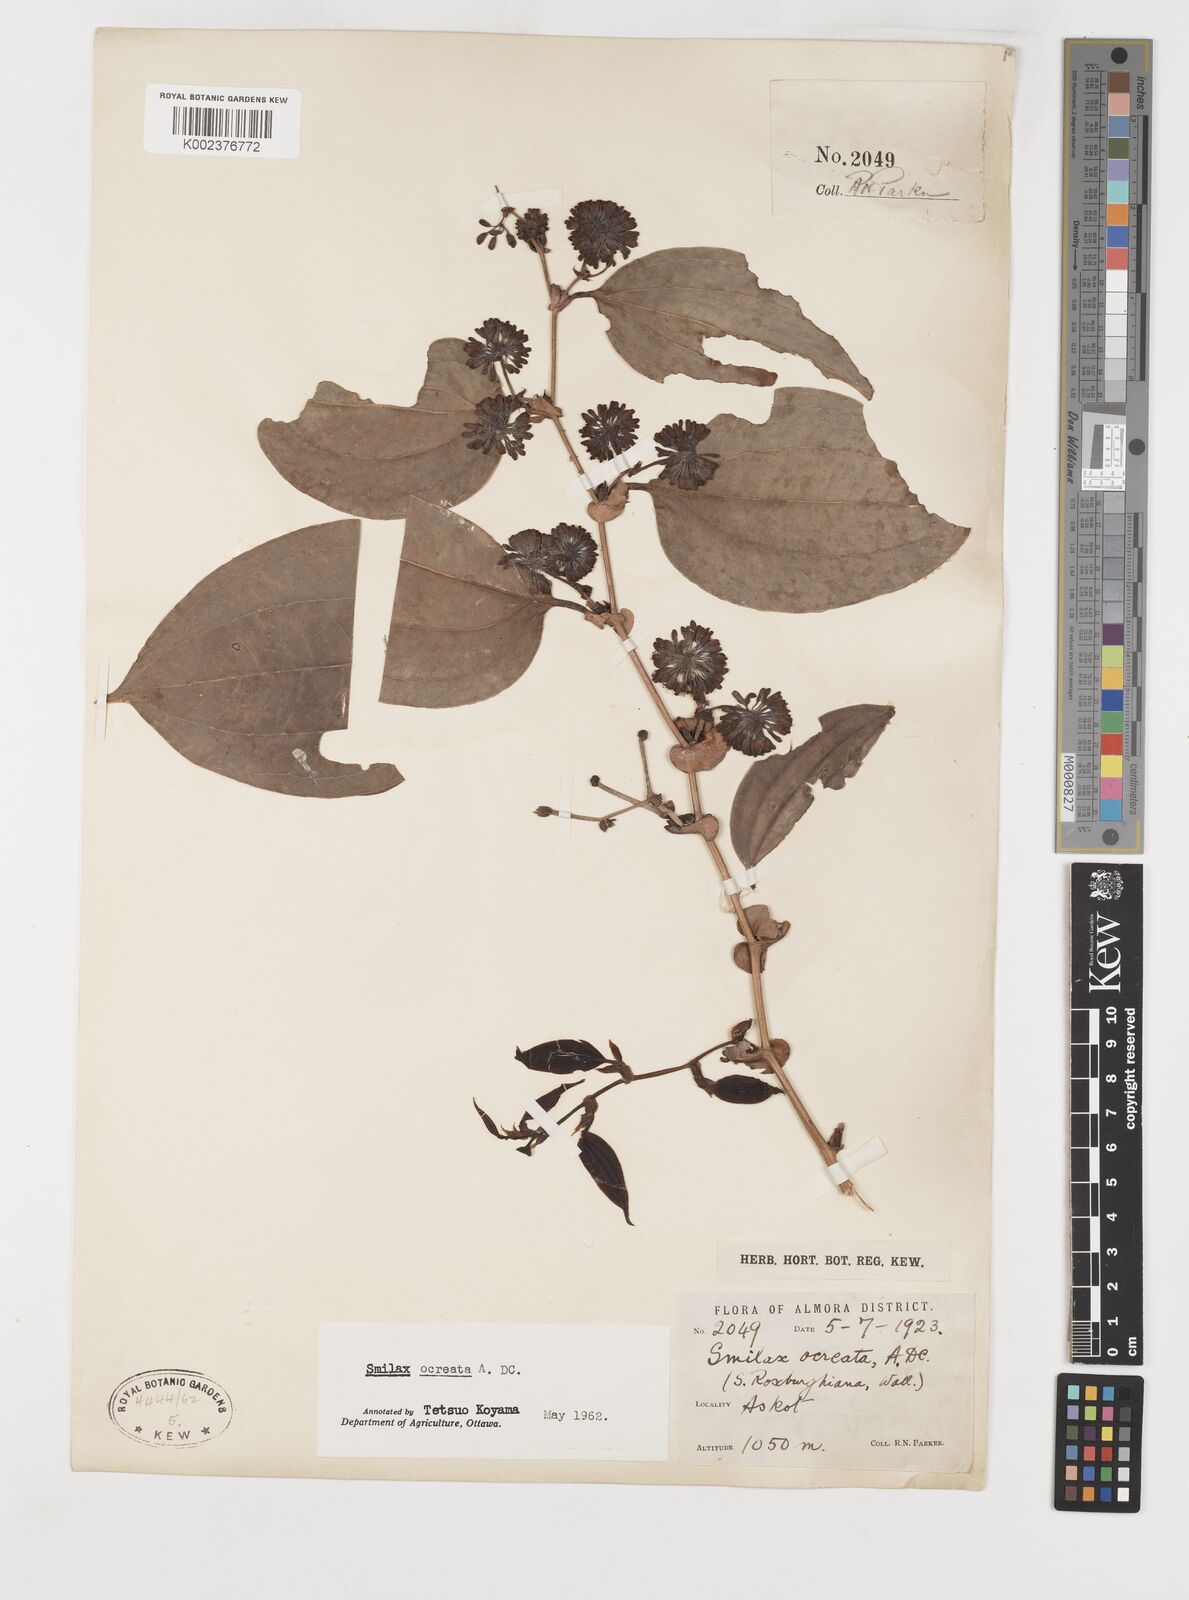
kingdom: Plantae
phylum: Tracheophyta
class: Liliopsida
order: Liliales
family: Smilacaceae
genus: Smilax
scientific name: Smilax ocreata
